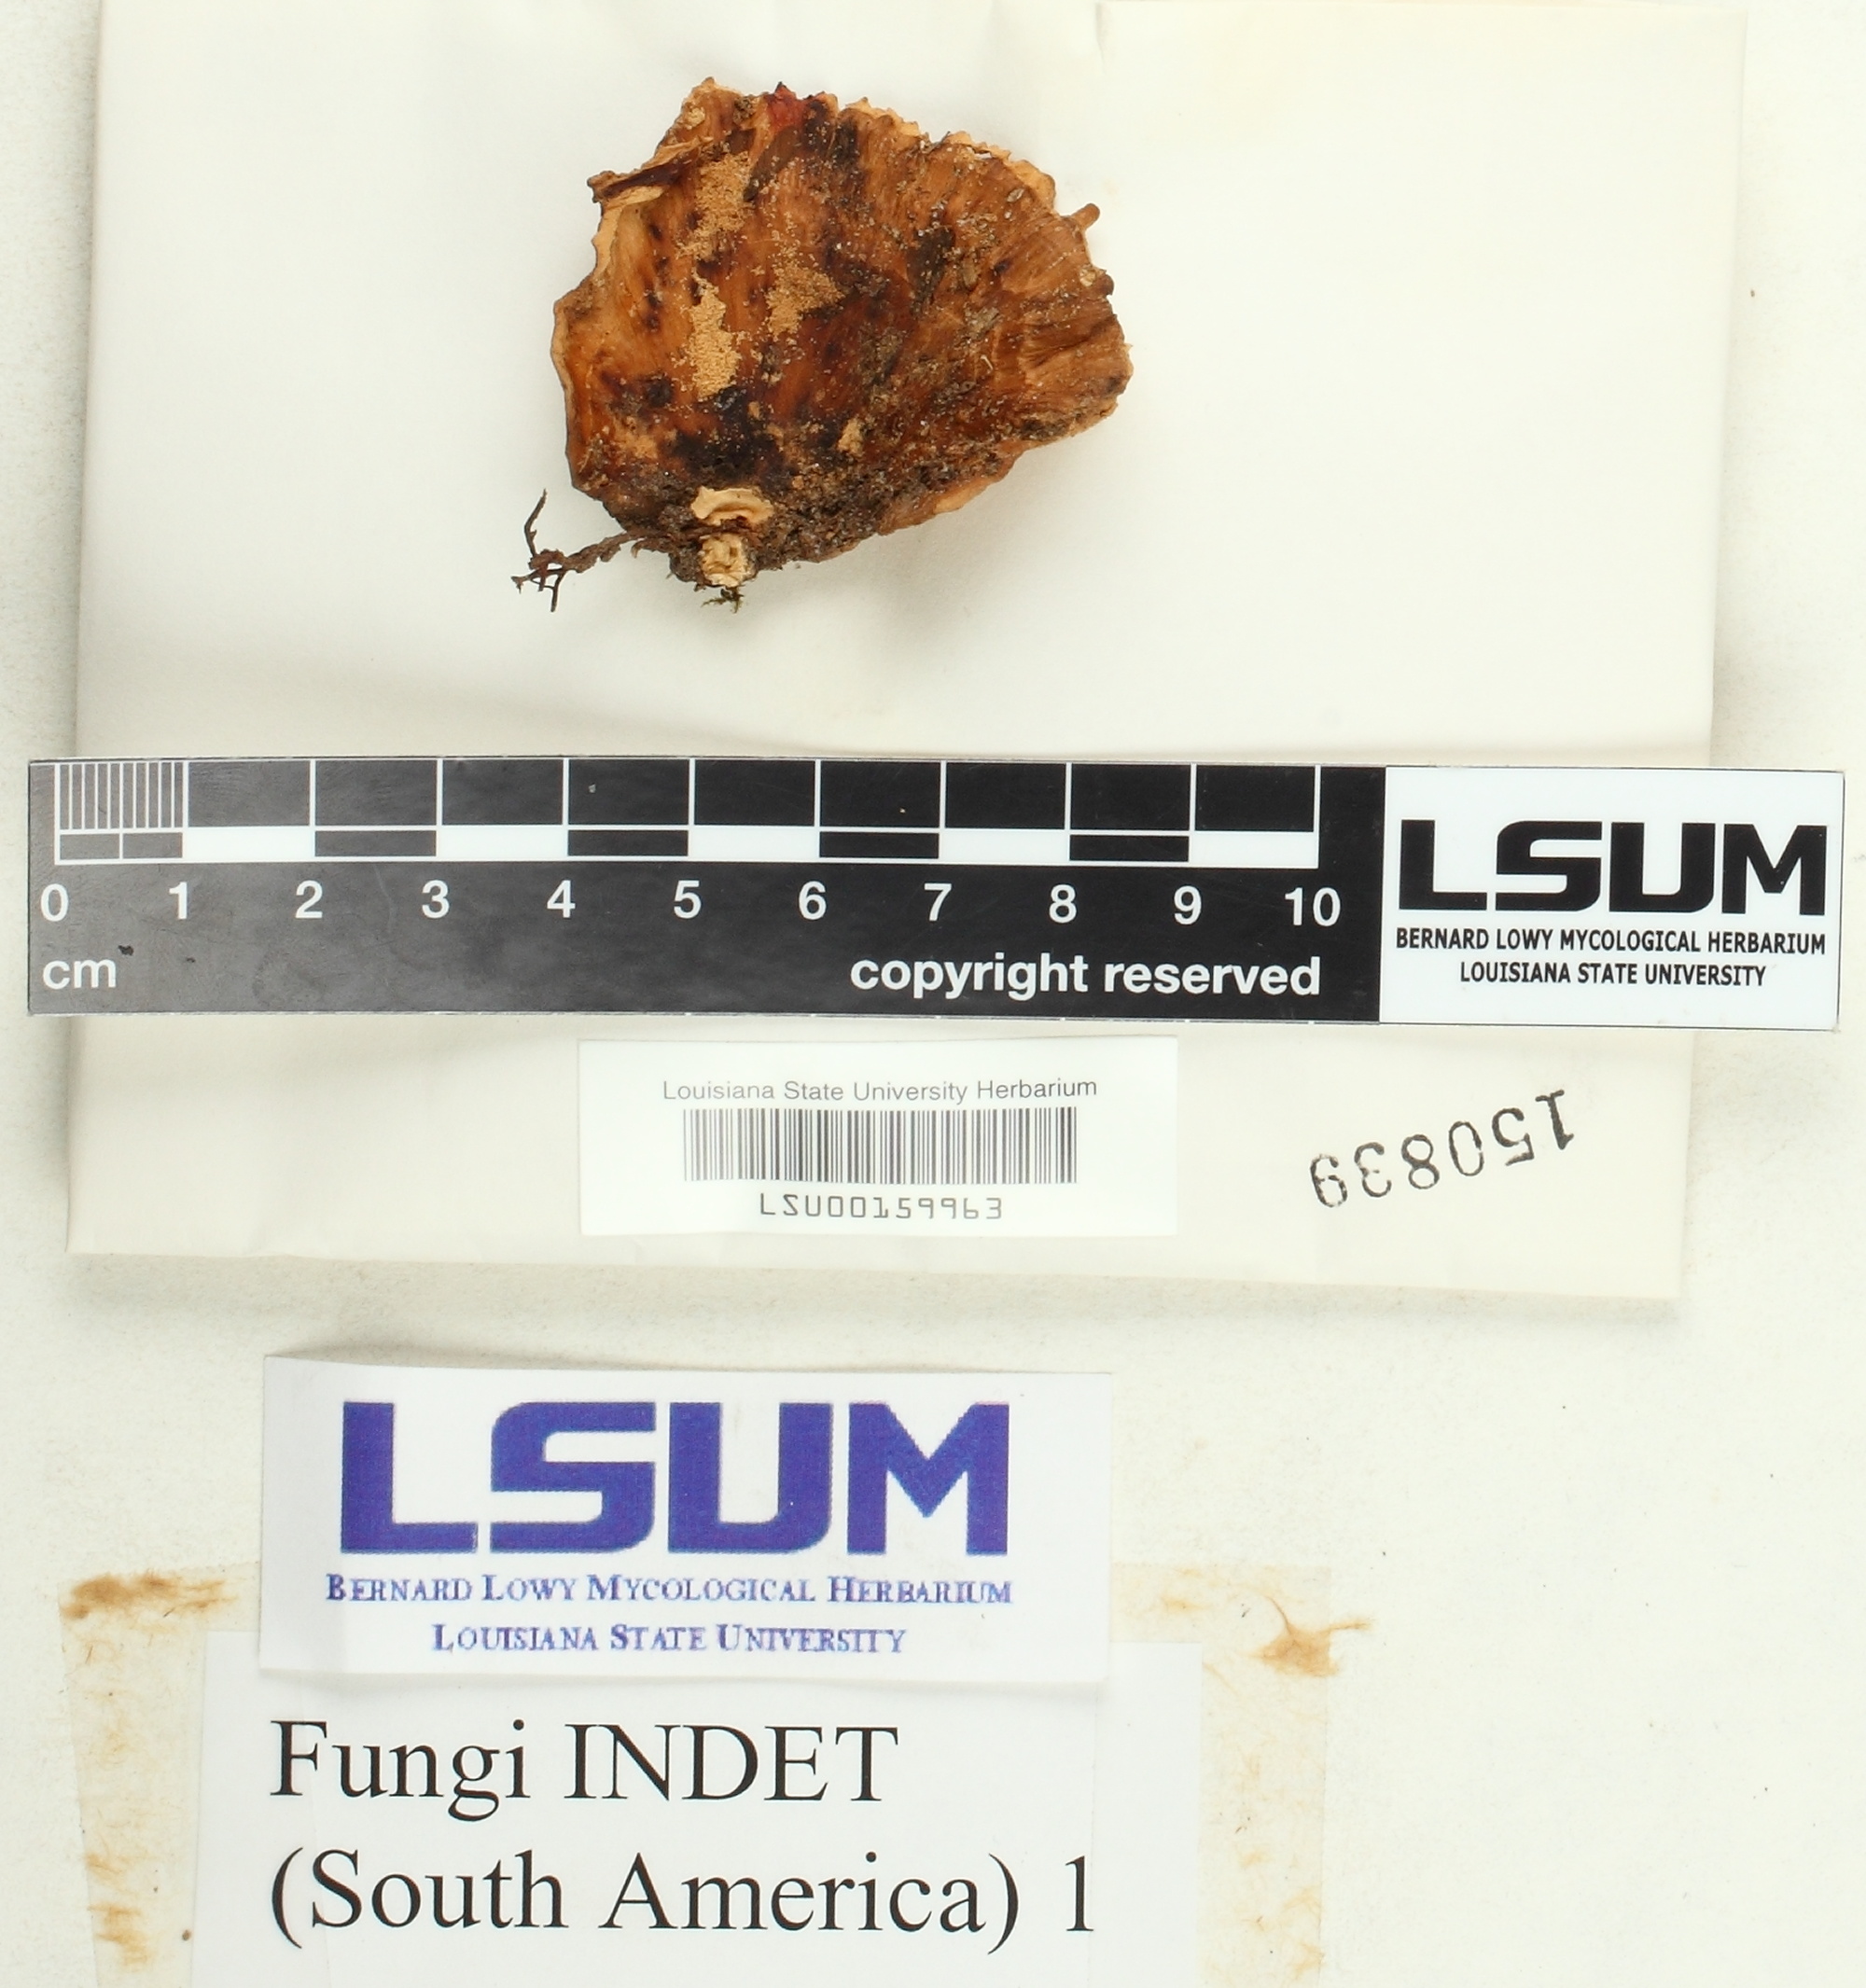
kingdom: Fungi
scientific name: Fungi
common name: Fungi
